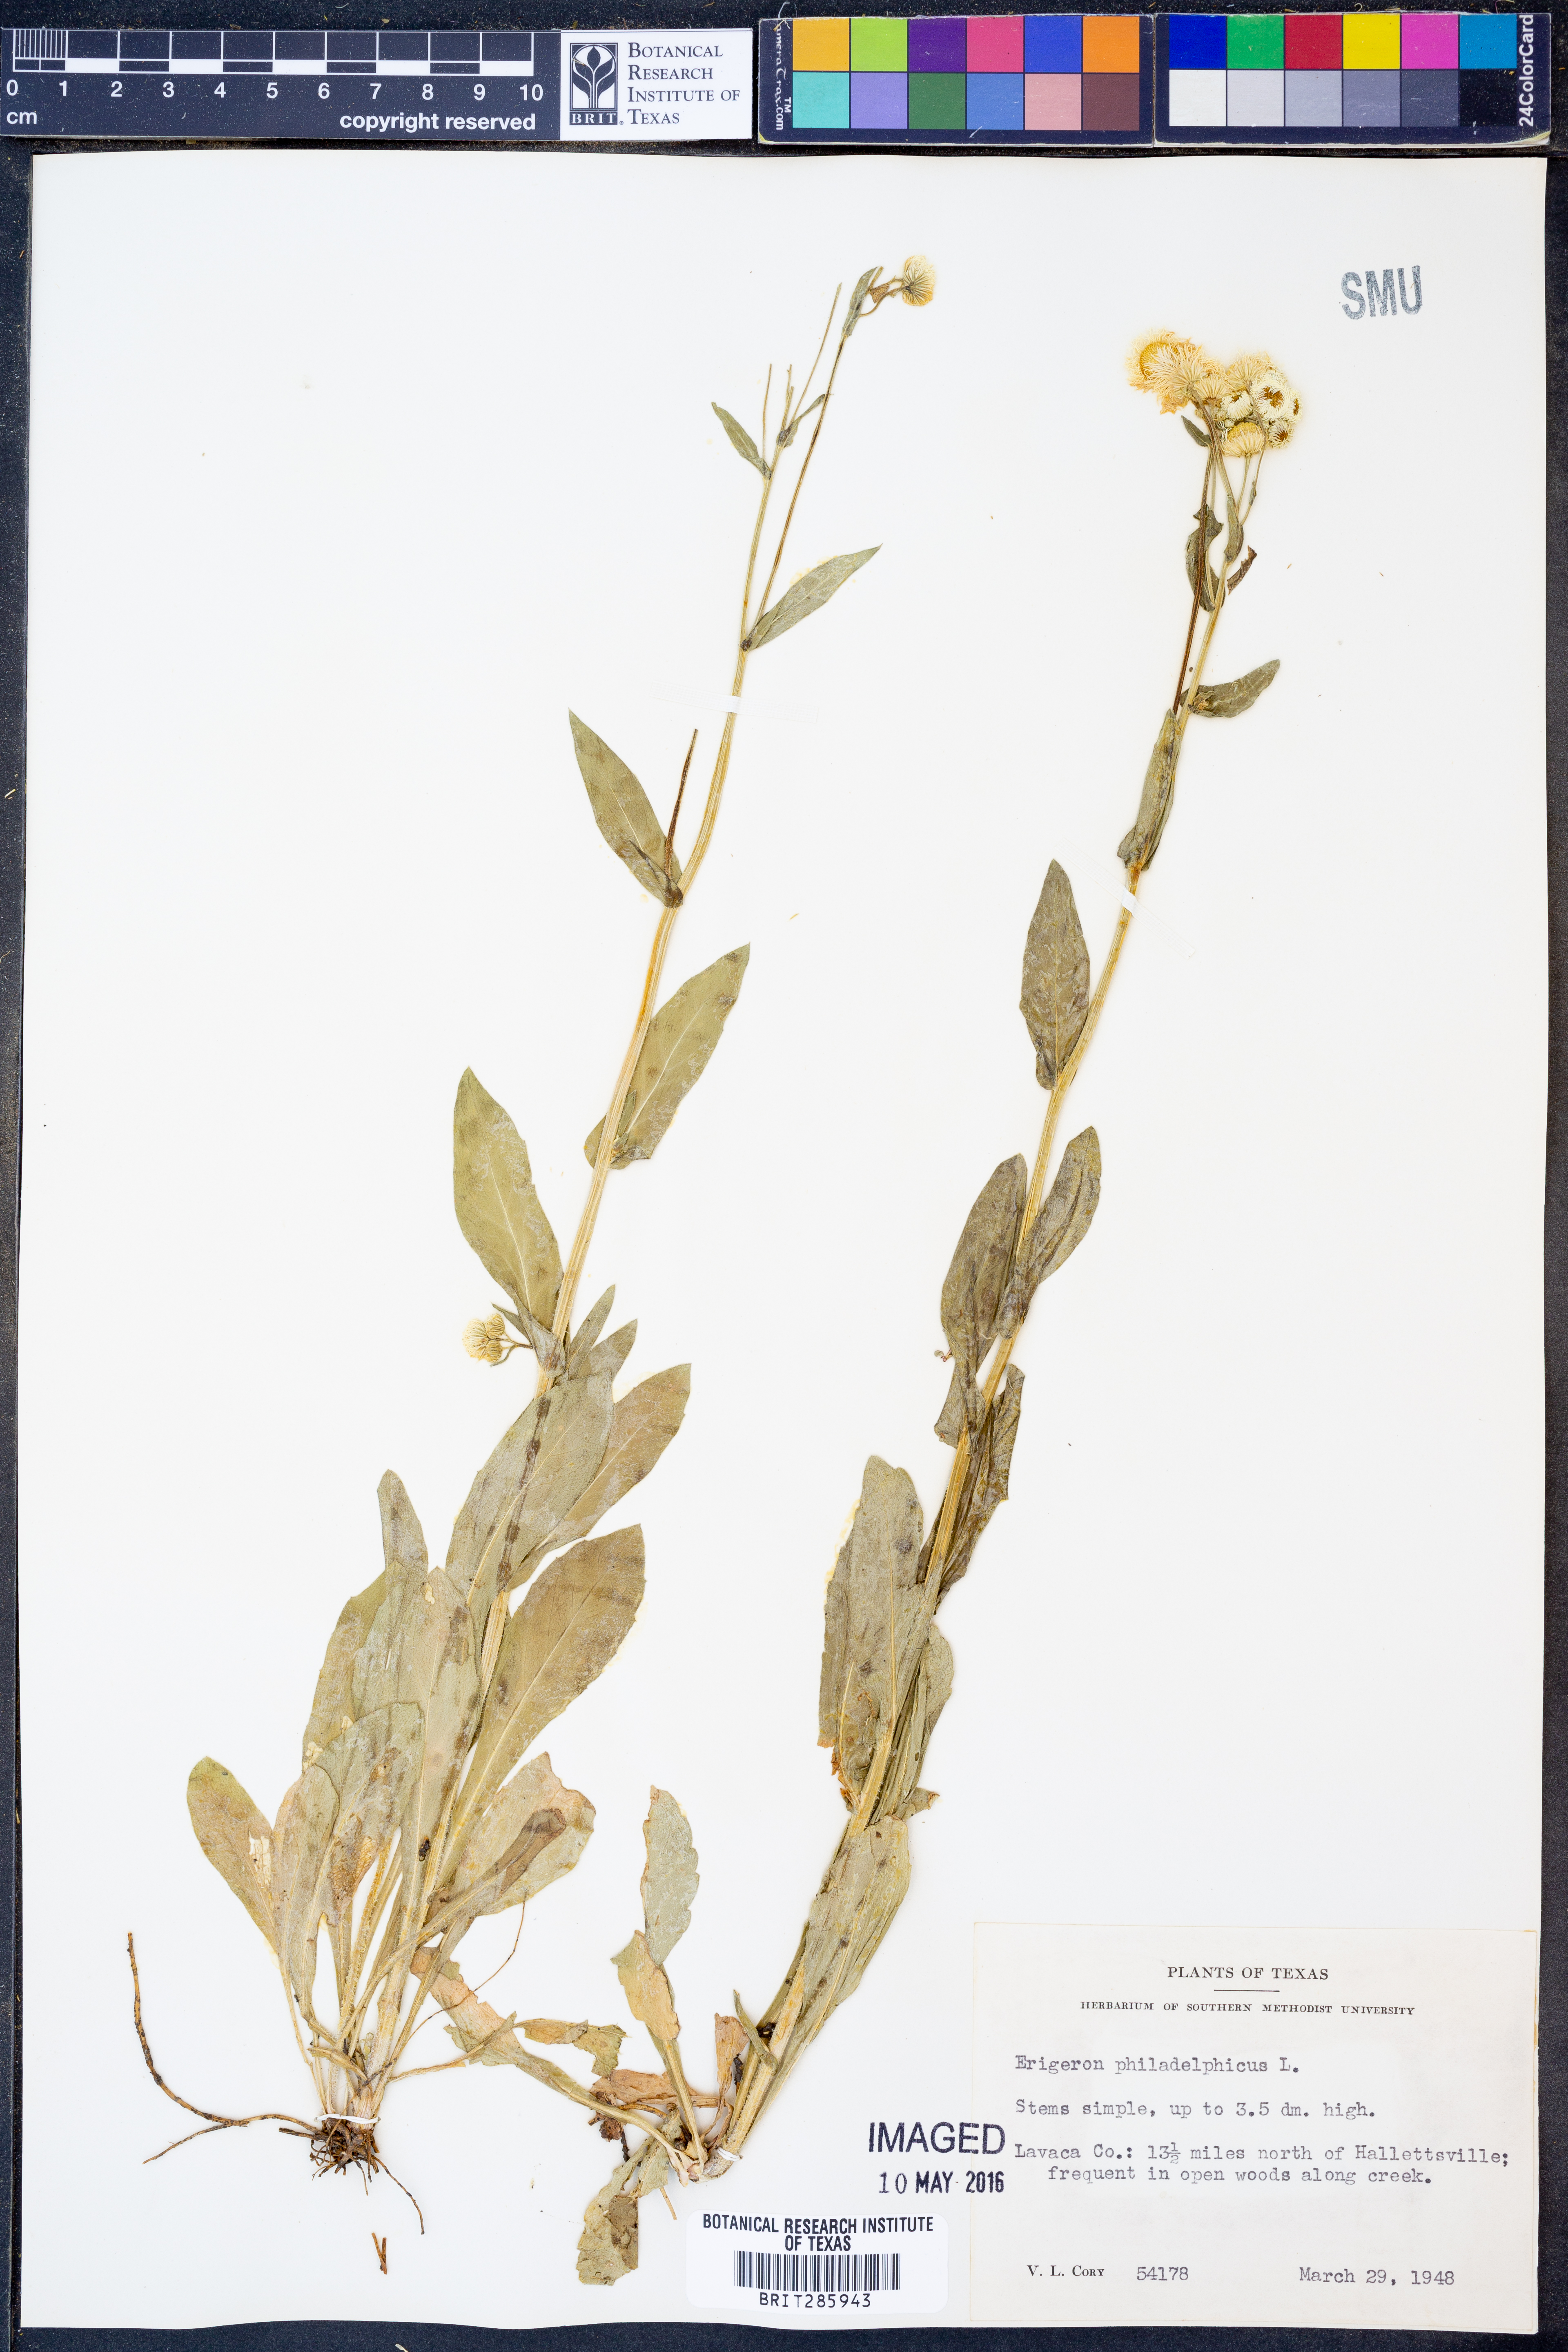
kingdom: Plantae
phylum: Tracheophyta
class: Magnoliopsida
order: Asterales
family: Asteraceae
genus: Erigeron
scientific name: Erigeron philadelphicus
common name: Robin's-plantain
